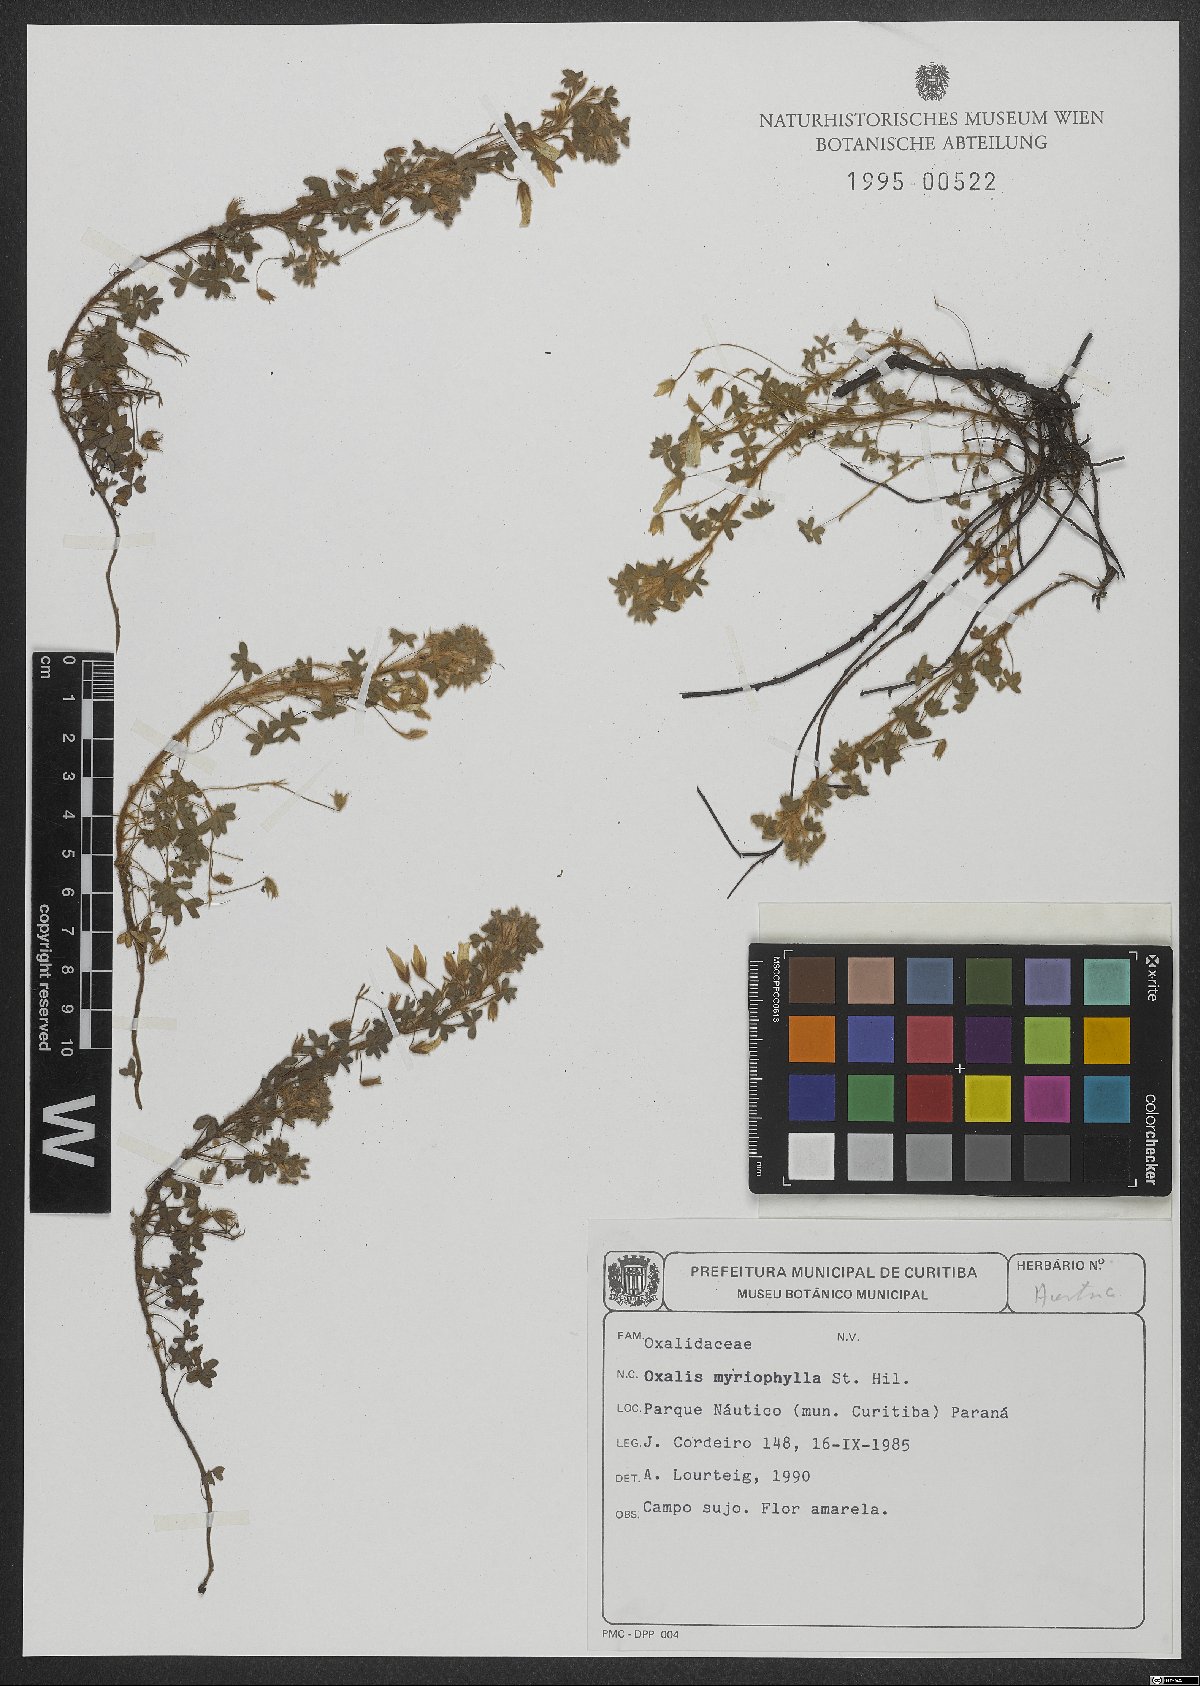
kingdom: Plantae
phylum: Tracheophyta
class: Magnoliopsida
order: Oxalidales
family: Oxalidaceae
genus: Oxalis
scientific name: Oxalis myriophylla
